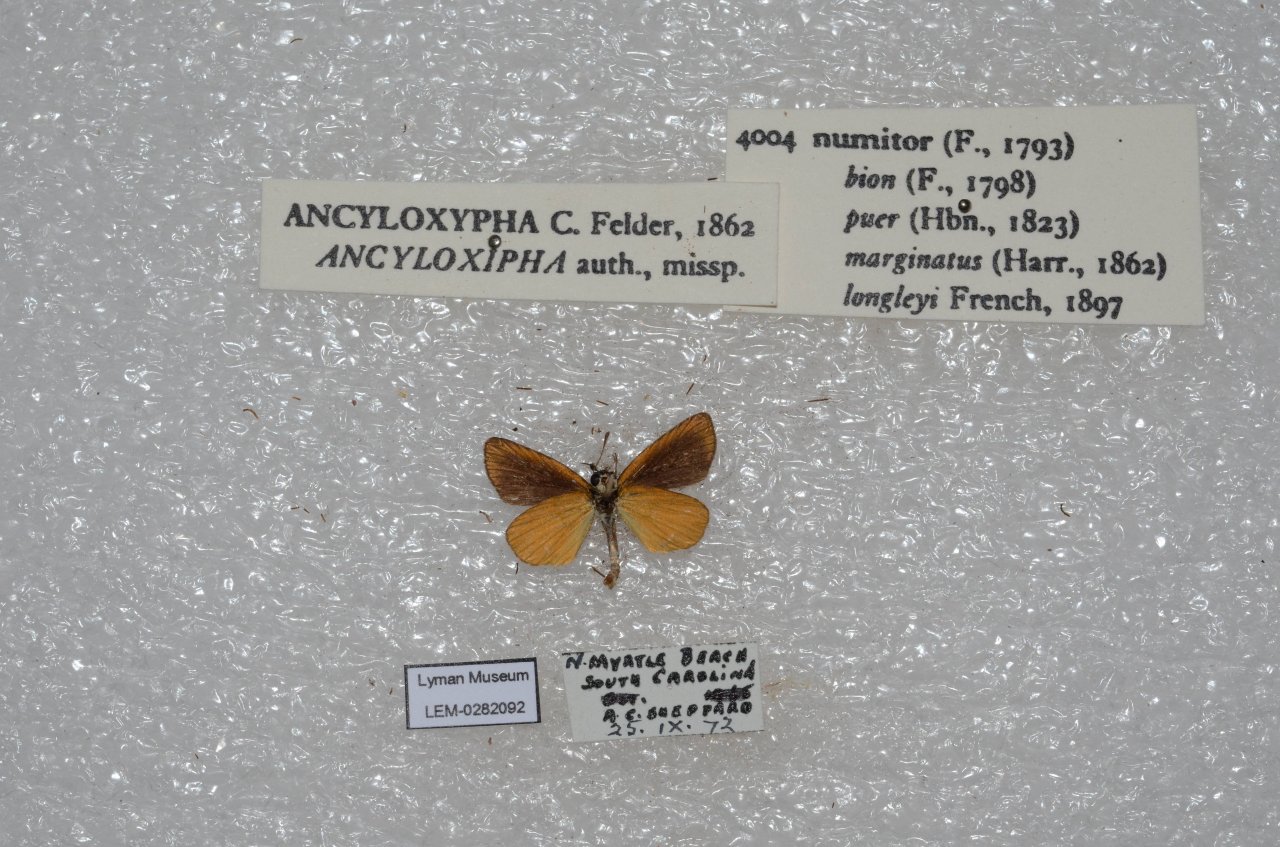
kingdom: Animalia
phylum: Arthropoda
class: Insecta
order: Lepidoptera
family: Hesperiidae
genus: Ancyloxypha
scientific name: Ancyloxypha numitor
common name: Least Skipper
